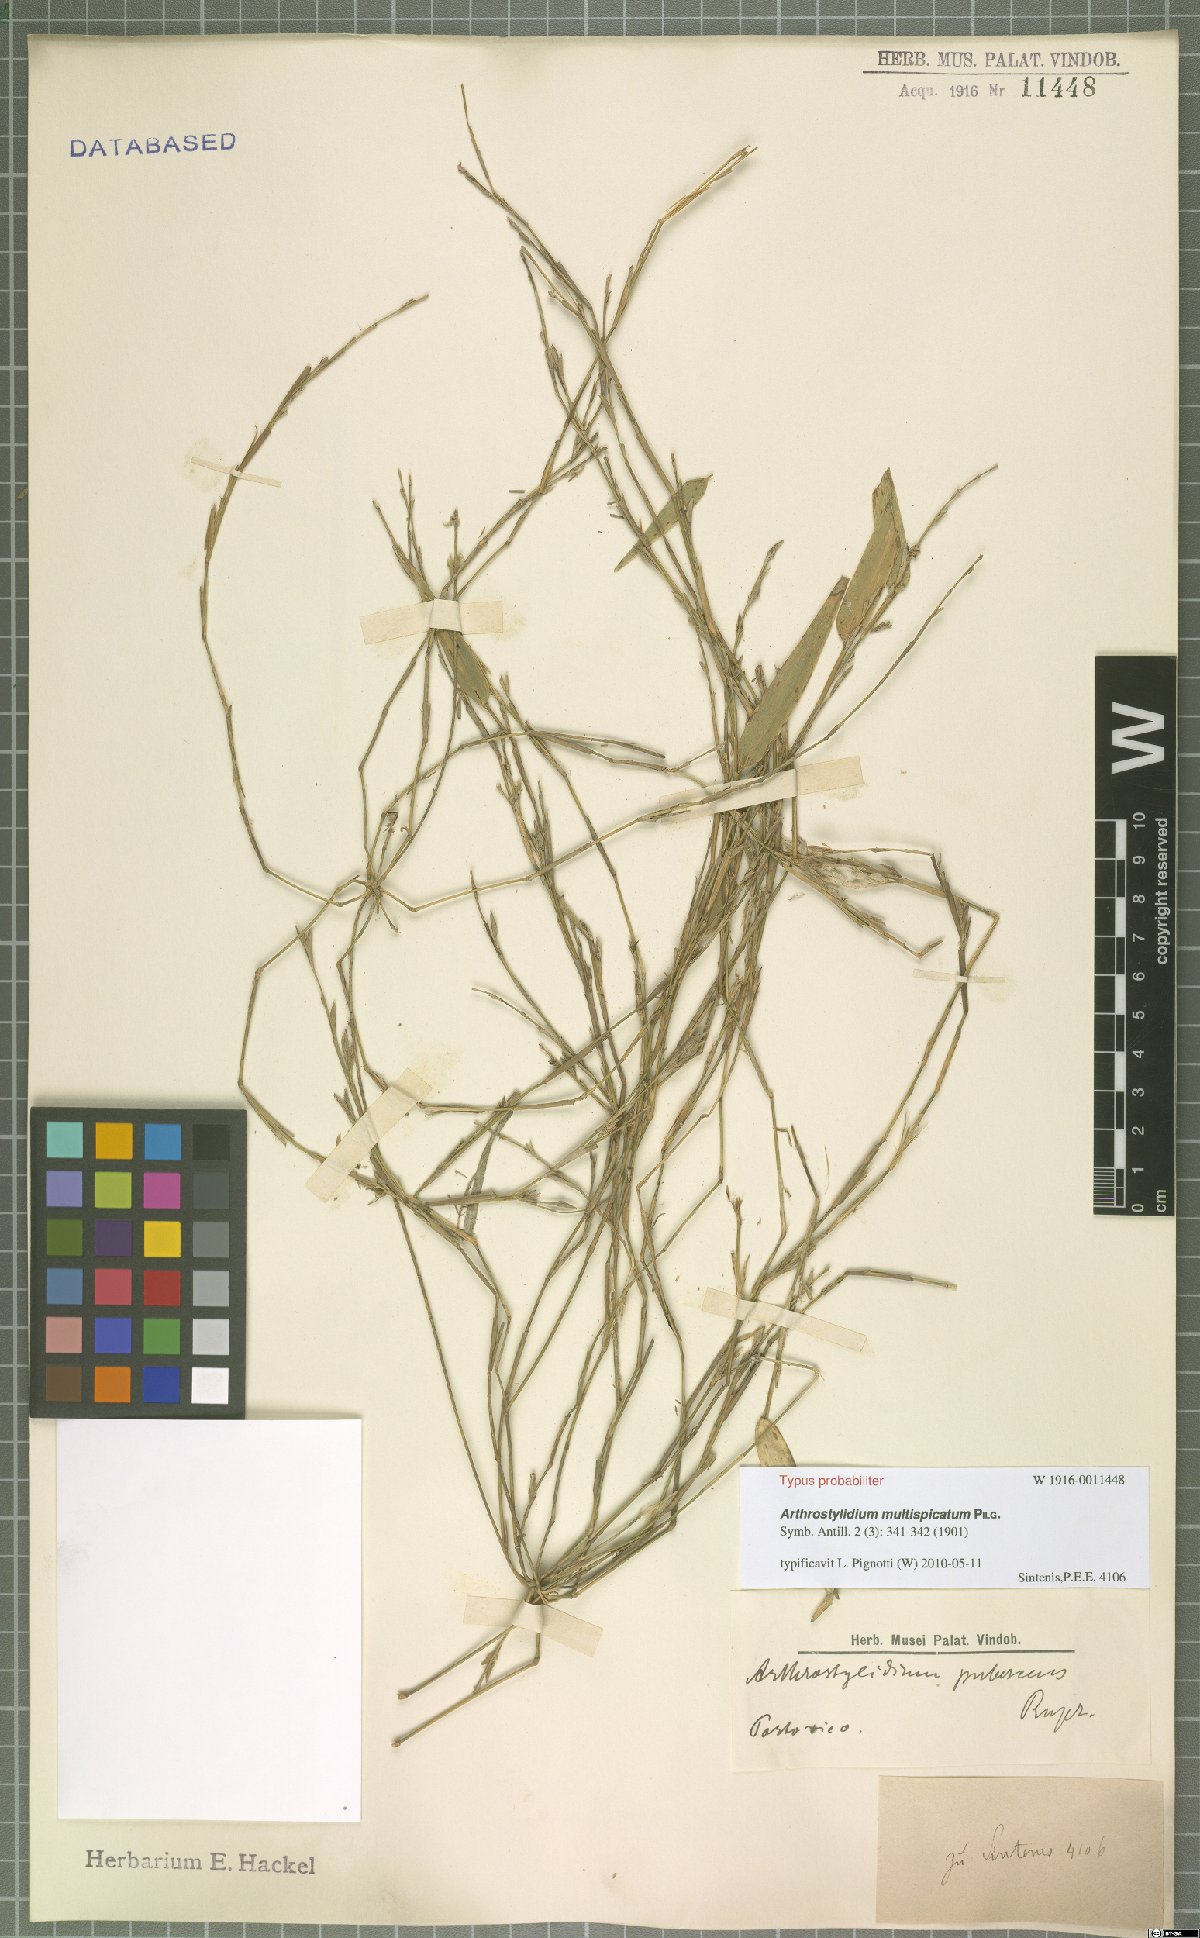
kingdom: Plantae
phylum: Tracheophyta
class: Liliopsida
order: Poales
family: Poaceae
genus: Arthrostylidium
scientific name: Arthrostylidium multispicatum
